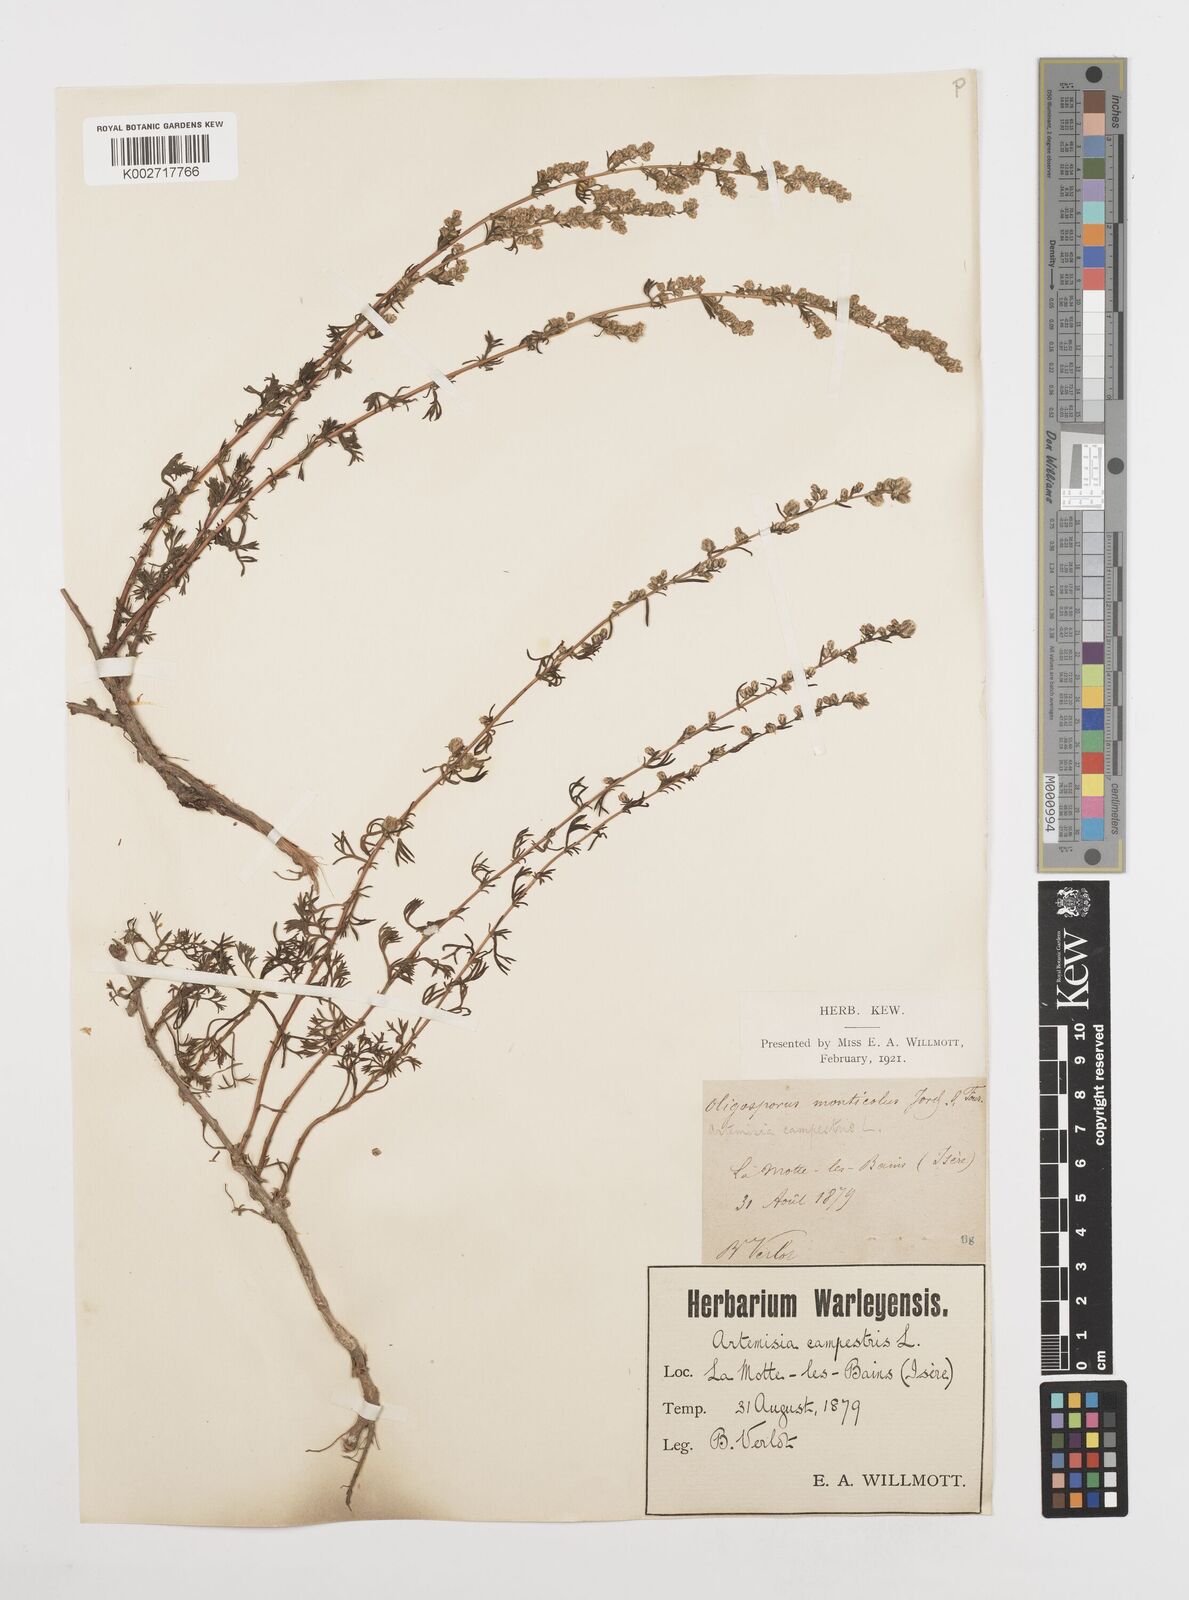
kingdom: Plantae
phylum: Tracheophyta
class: Magnoliopsida
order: Asterales
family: Asteraceae
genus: Artemisia
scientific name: Artemisia campestris
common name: Field wormwood
